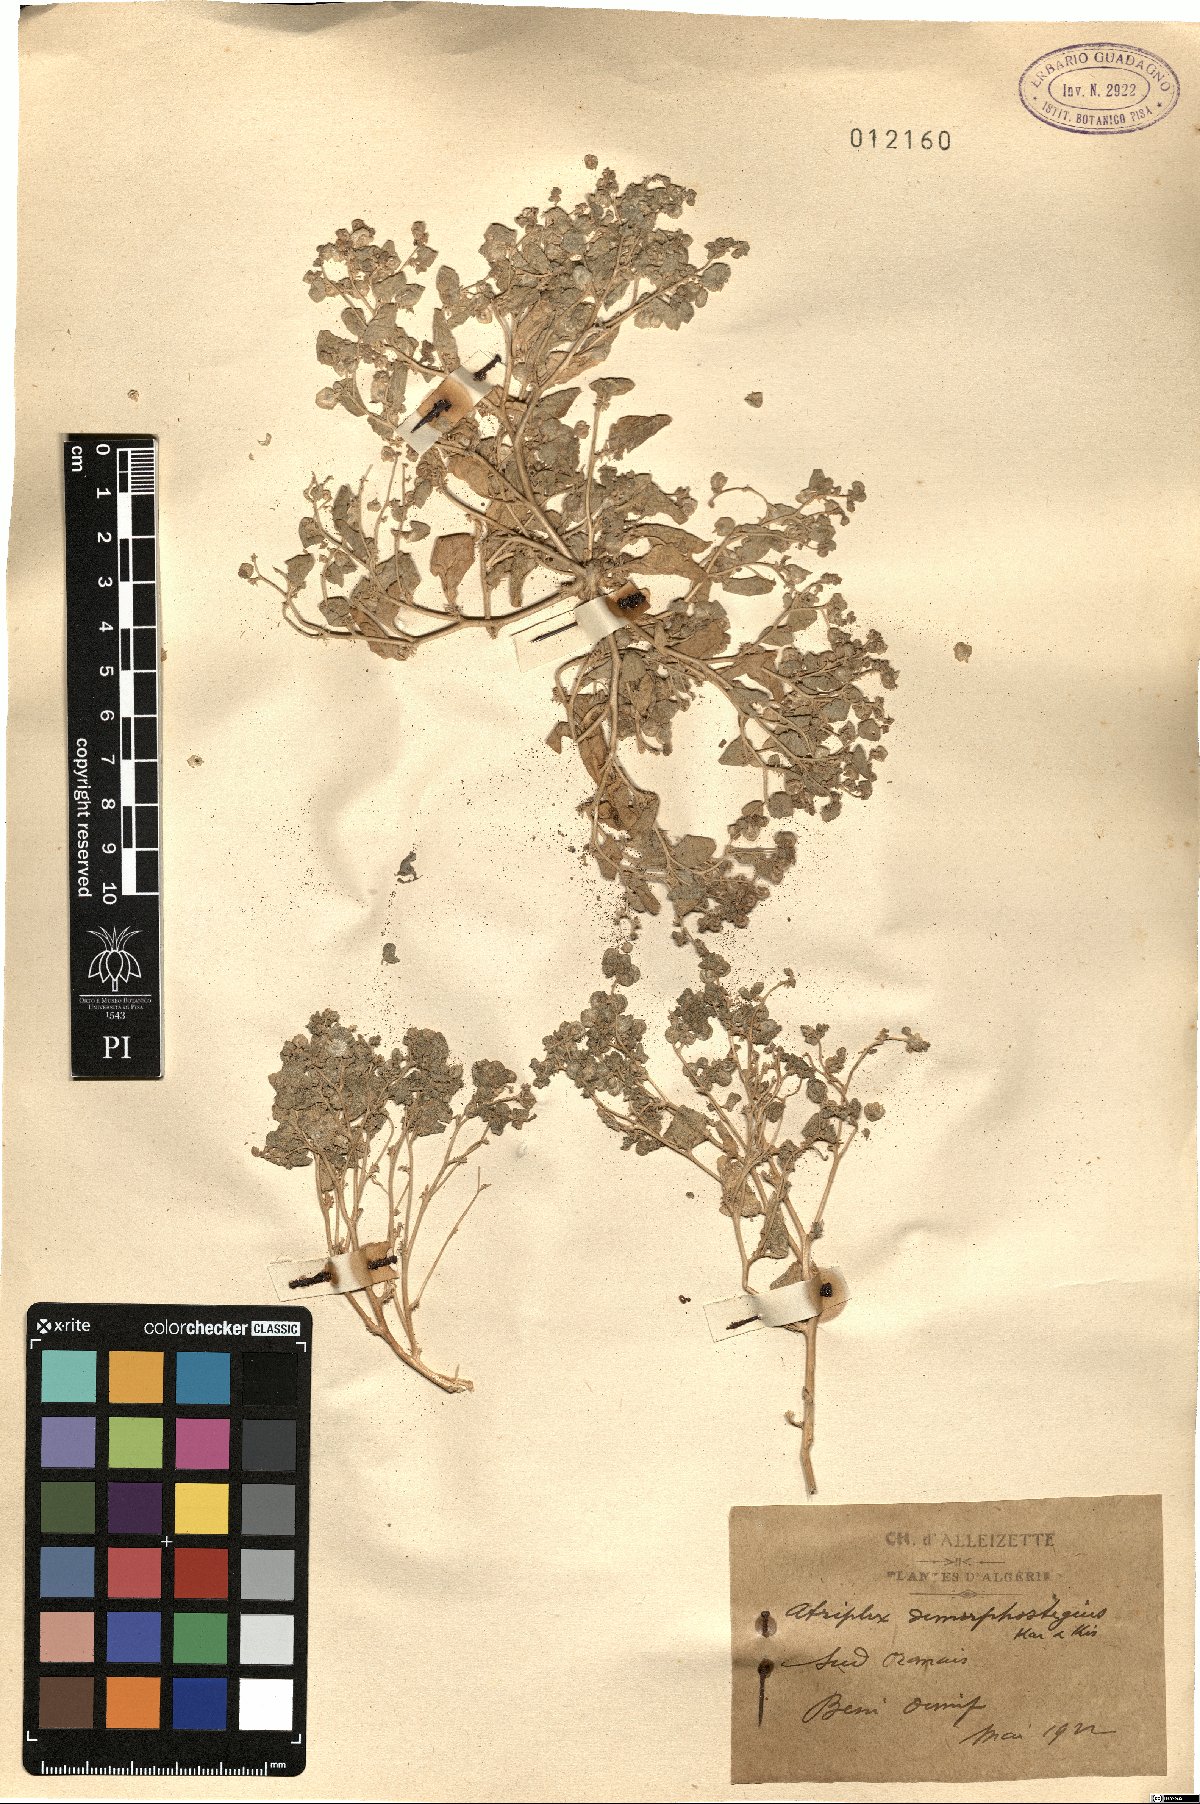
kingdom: Plantae
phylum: Tracheophyta
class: Magnoliopsida
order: Caryophyllales
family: Amaranthaceae
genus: Atriplex
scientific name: Atriplex dimorphostegia
